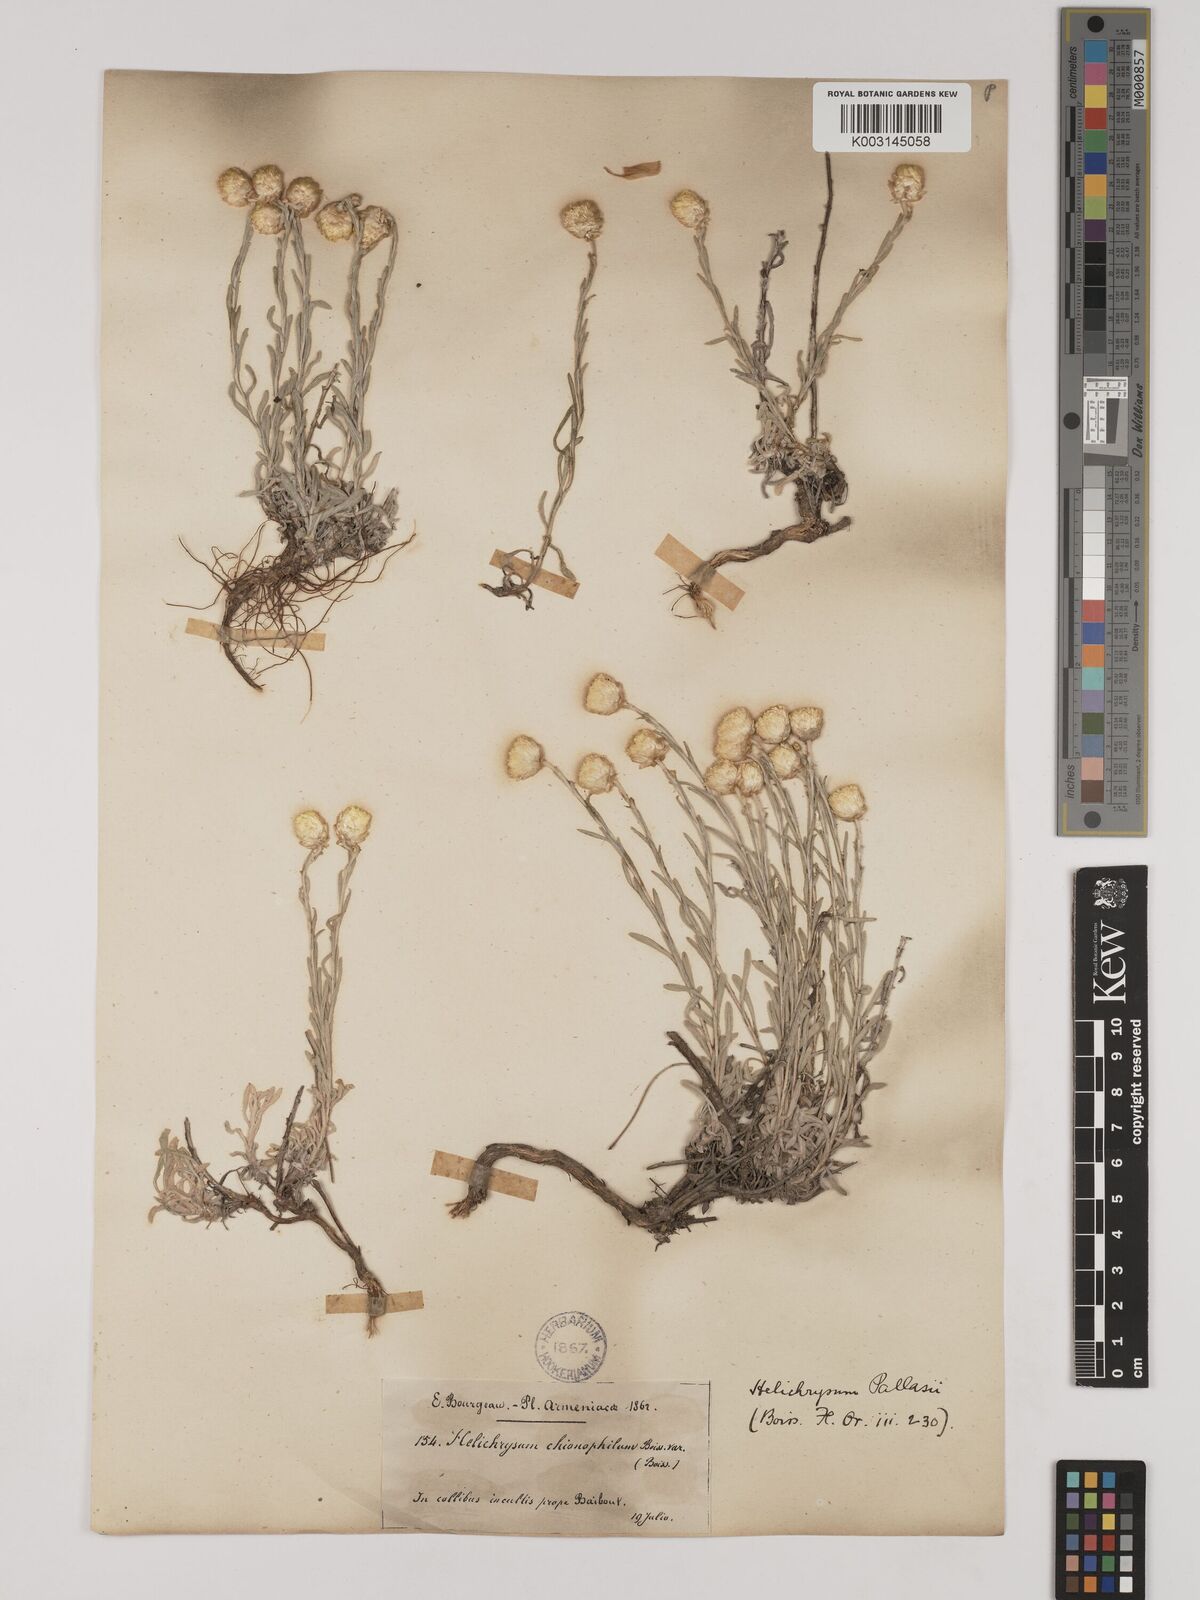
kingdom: Plantae
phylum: Tracheophyta
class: Magnoliopsida
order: Asterales
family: Asteraceae
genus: Helichrysum
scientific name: Helichrysum pallasii
